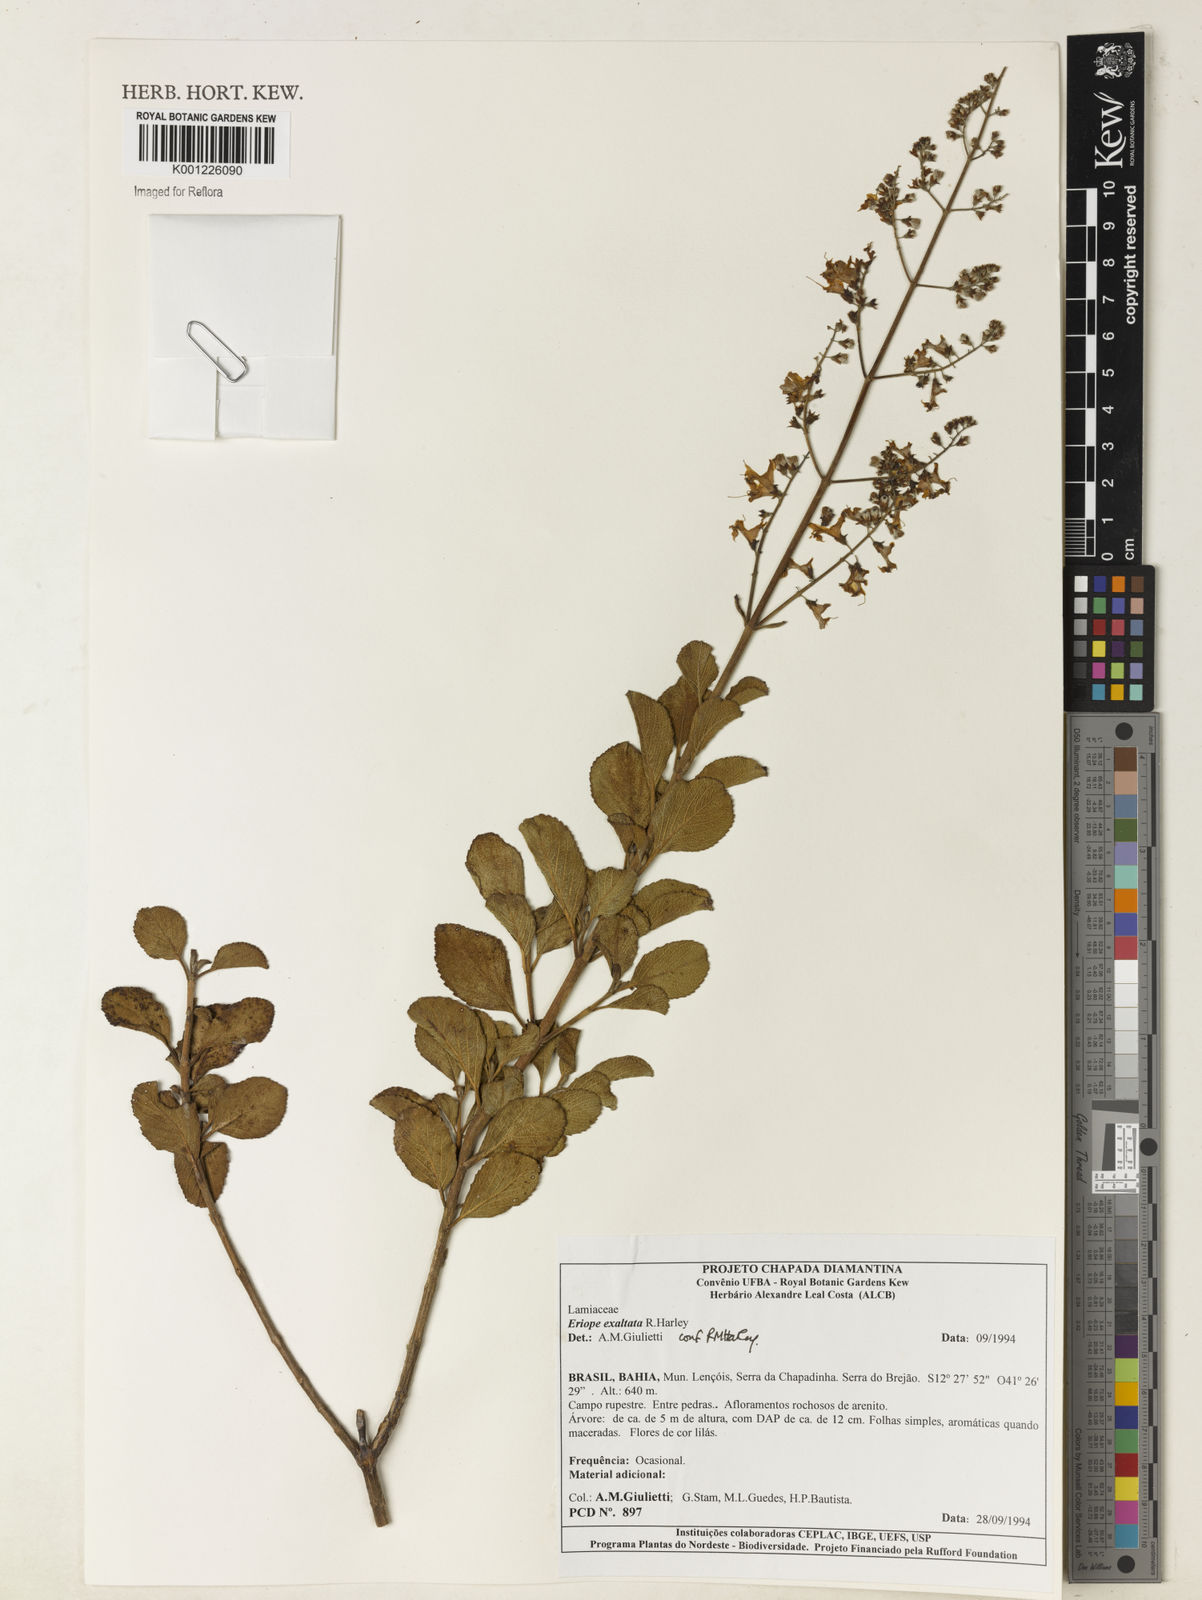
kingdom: Plantae
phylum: Tracheophyta
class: Magnoliopsida
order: Lamiales
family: Lamiaceae
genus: Eriope
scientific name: Eriope exaltata
